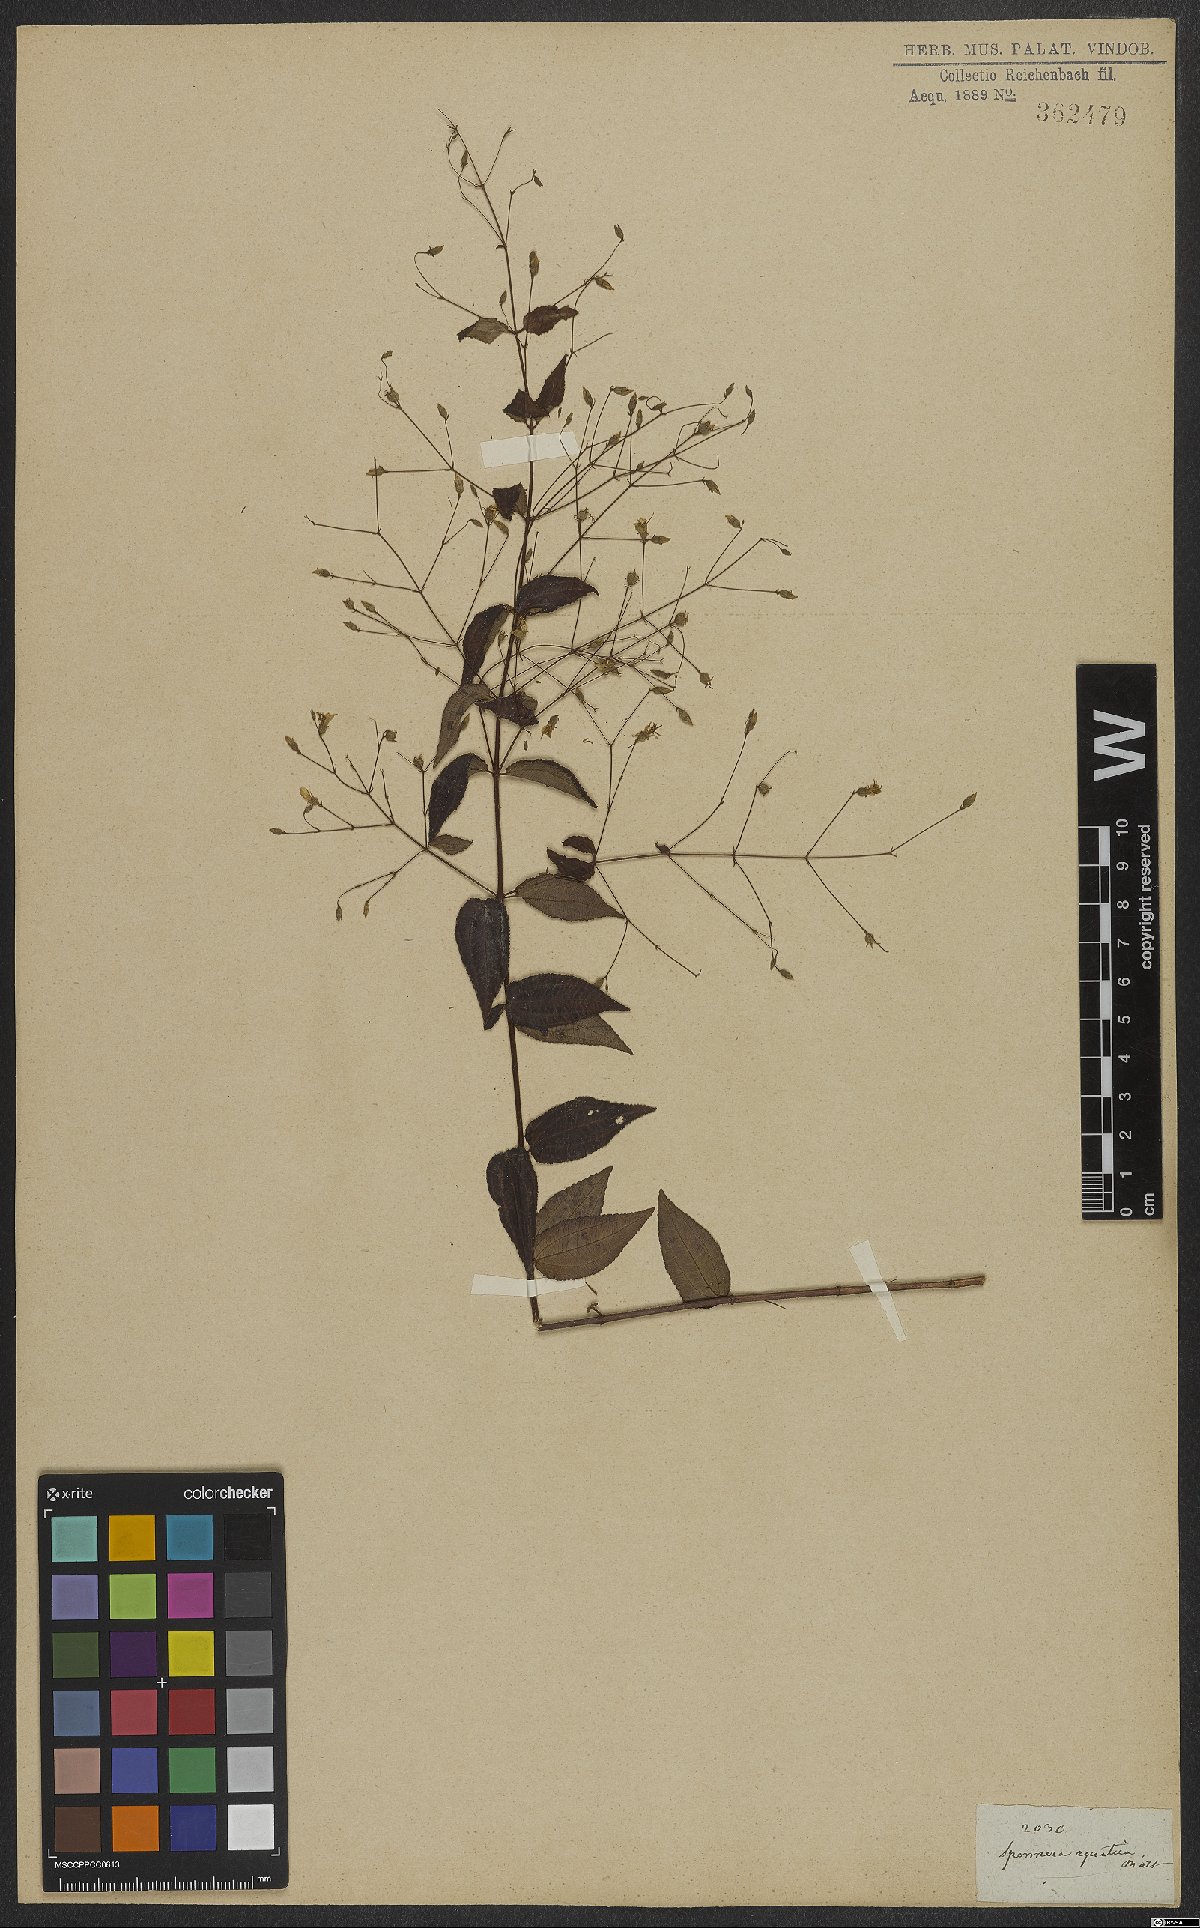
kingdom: Plantae
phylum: Tracheophyta
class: Magnoliopsida
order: Myrtales
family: Melastomataceae
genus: Nepsera
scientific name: Nepsera aquatica
